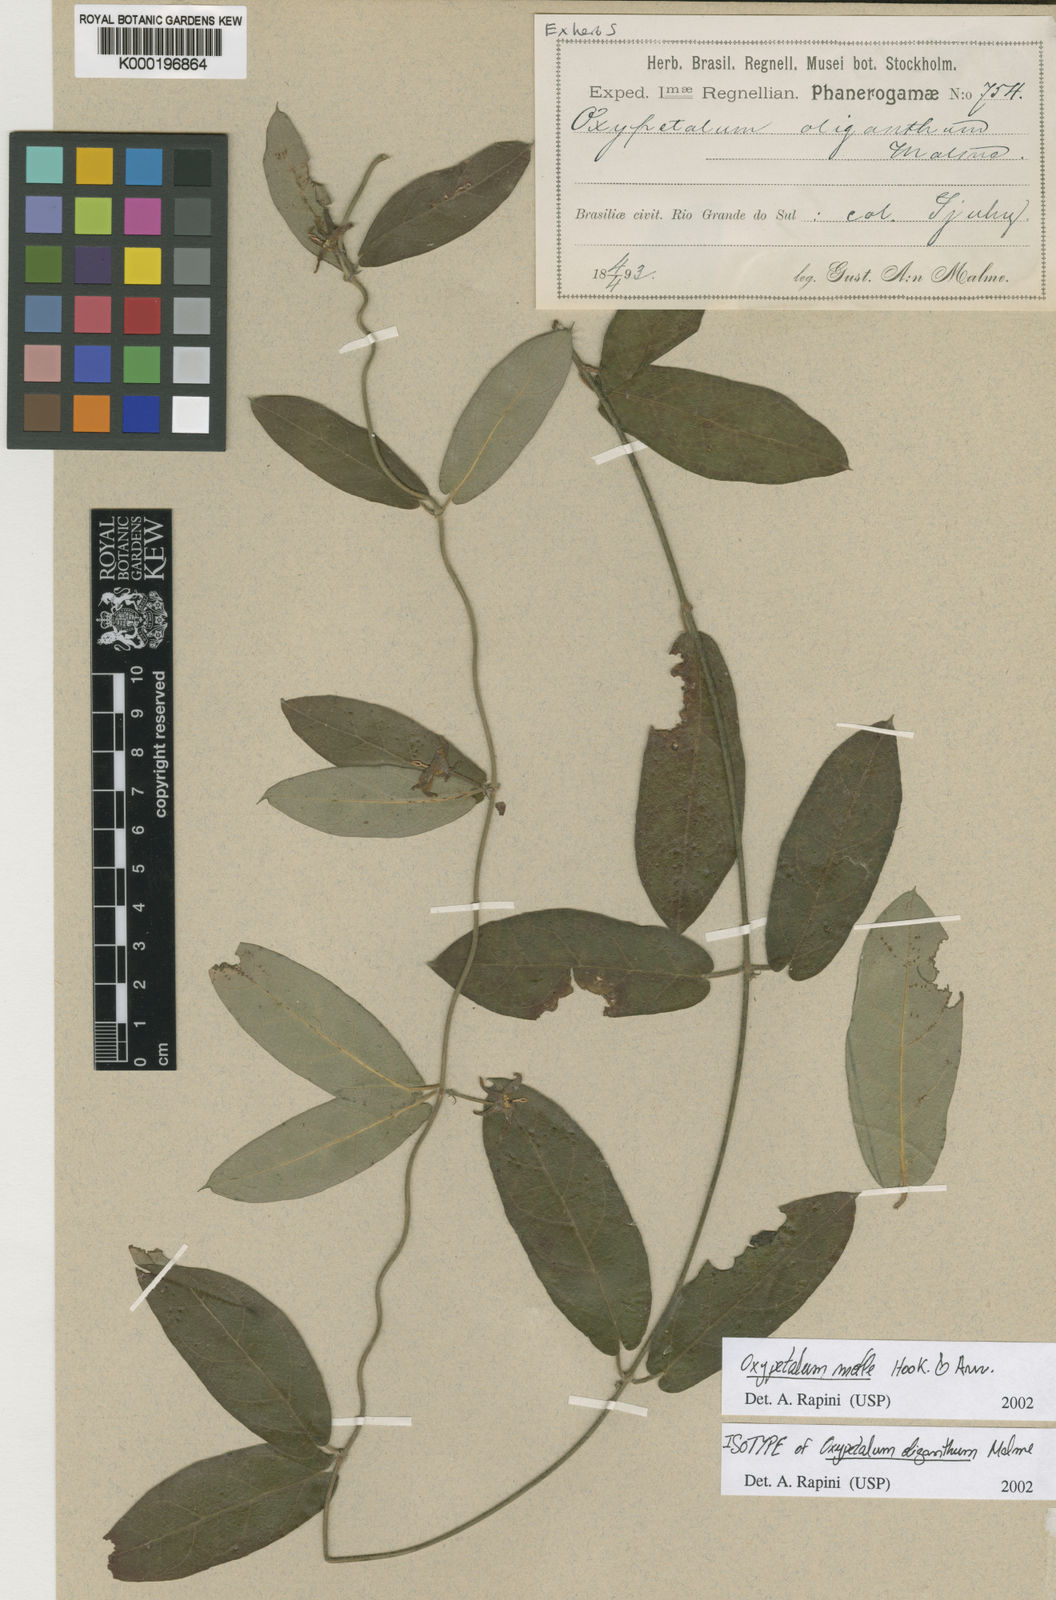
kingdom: Plantae
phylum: Tracheophyta
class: Magnoliopsida
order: Gentianales
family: Apocynaceae
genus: Oxypetalum
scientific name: Oxypetalum molle
